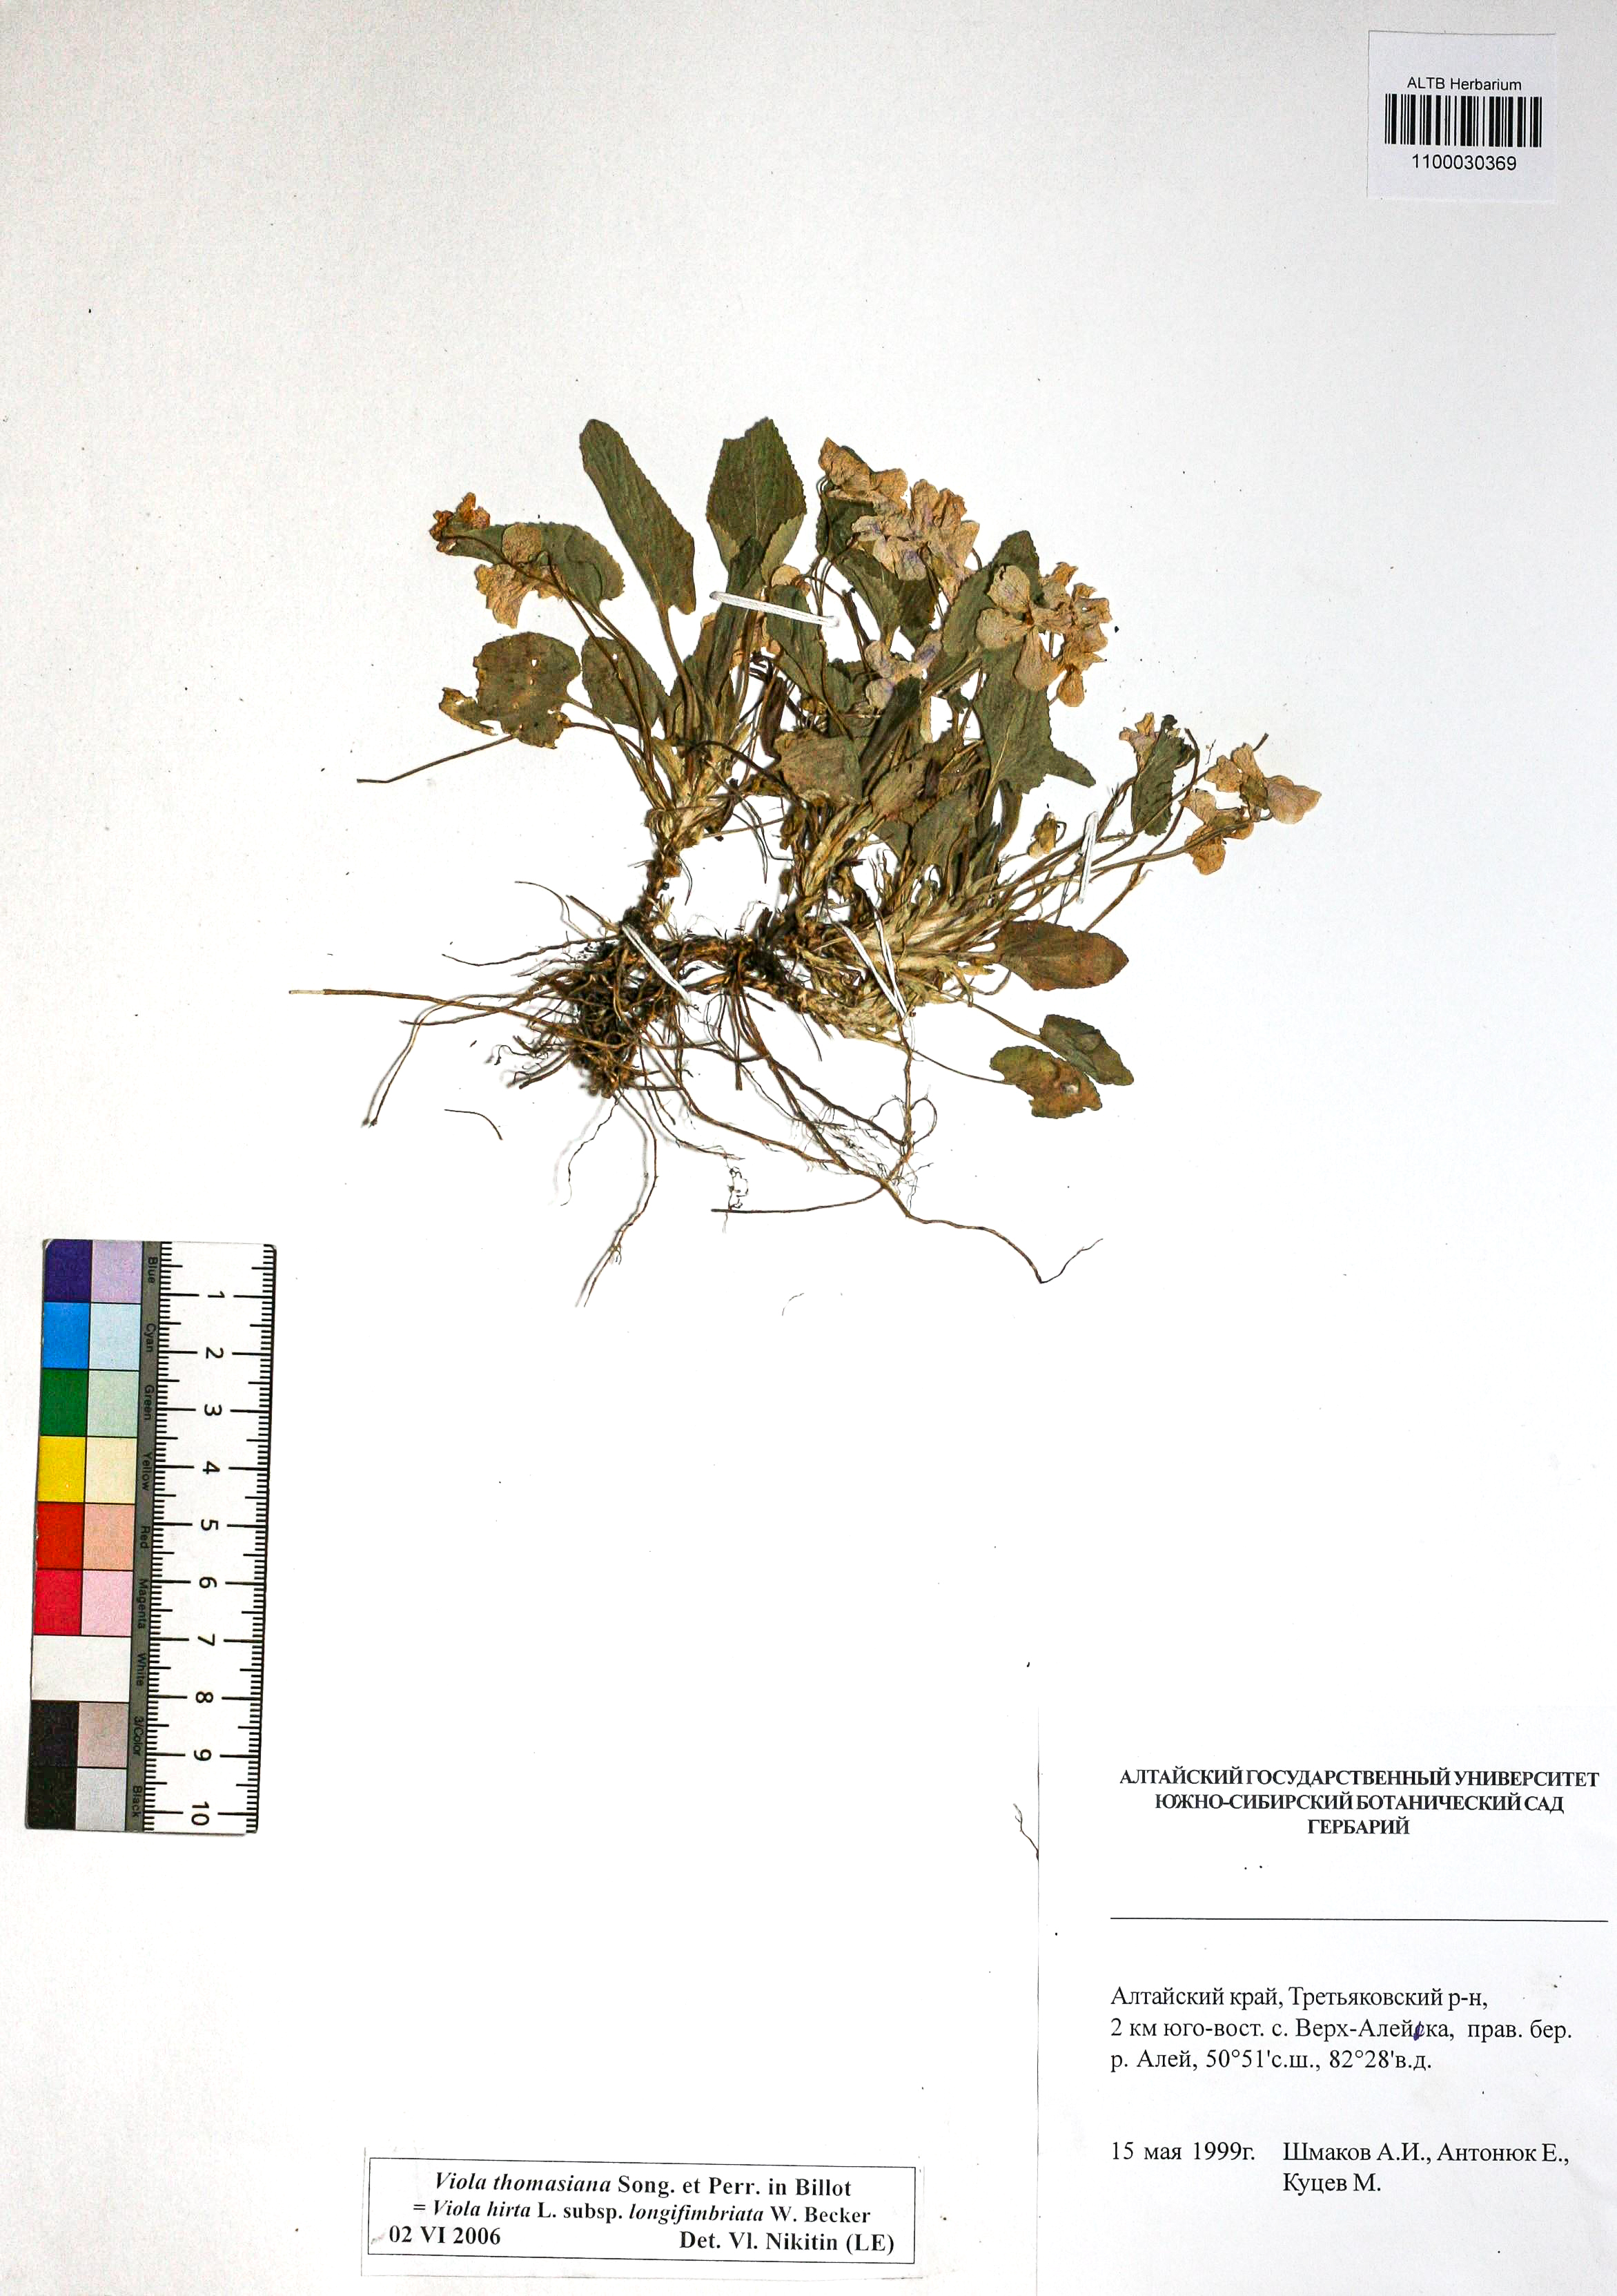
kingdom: Plantae
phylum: Tracheophyta
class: Magnoliopsida
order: Malpighiales
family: Violaceae
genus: Viola
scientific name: Viola thomasiana
